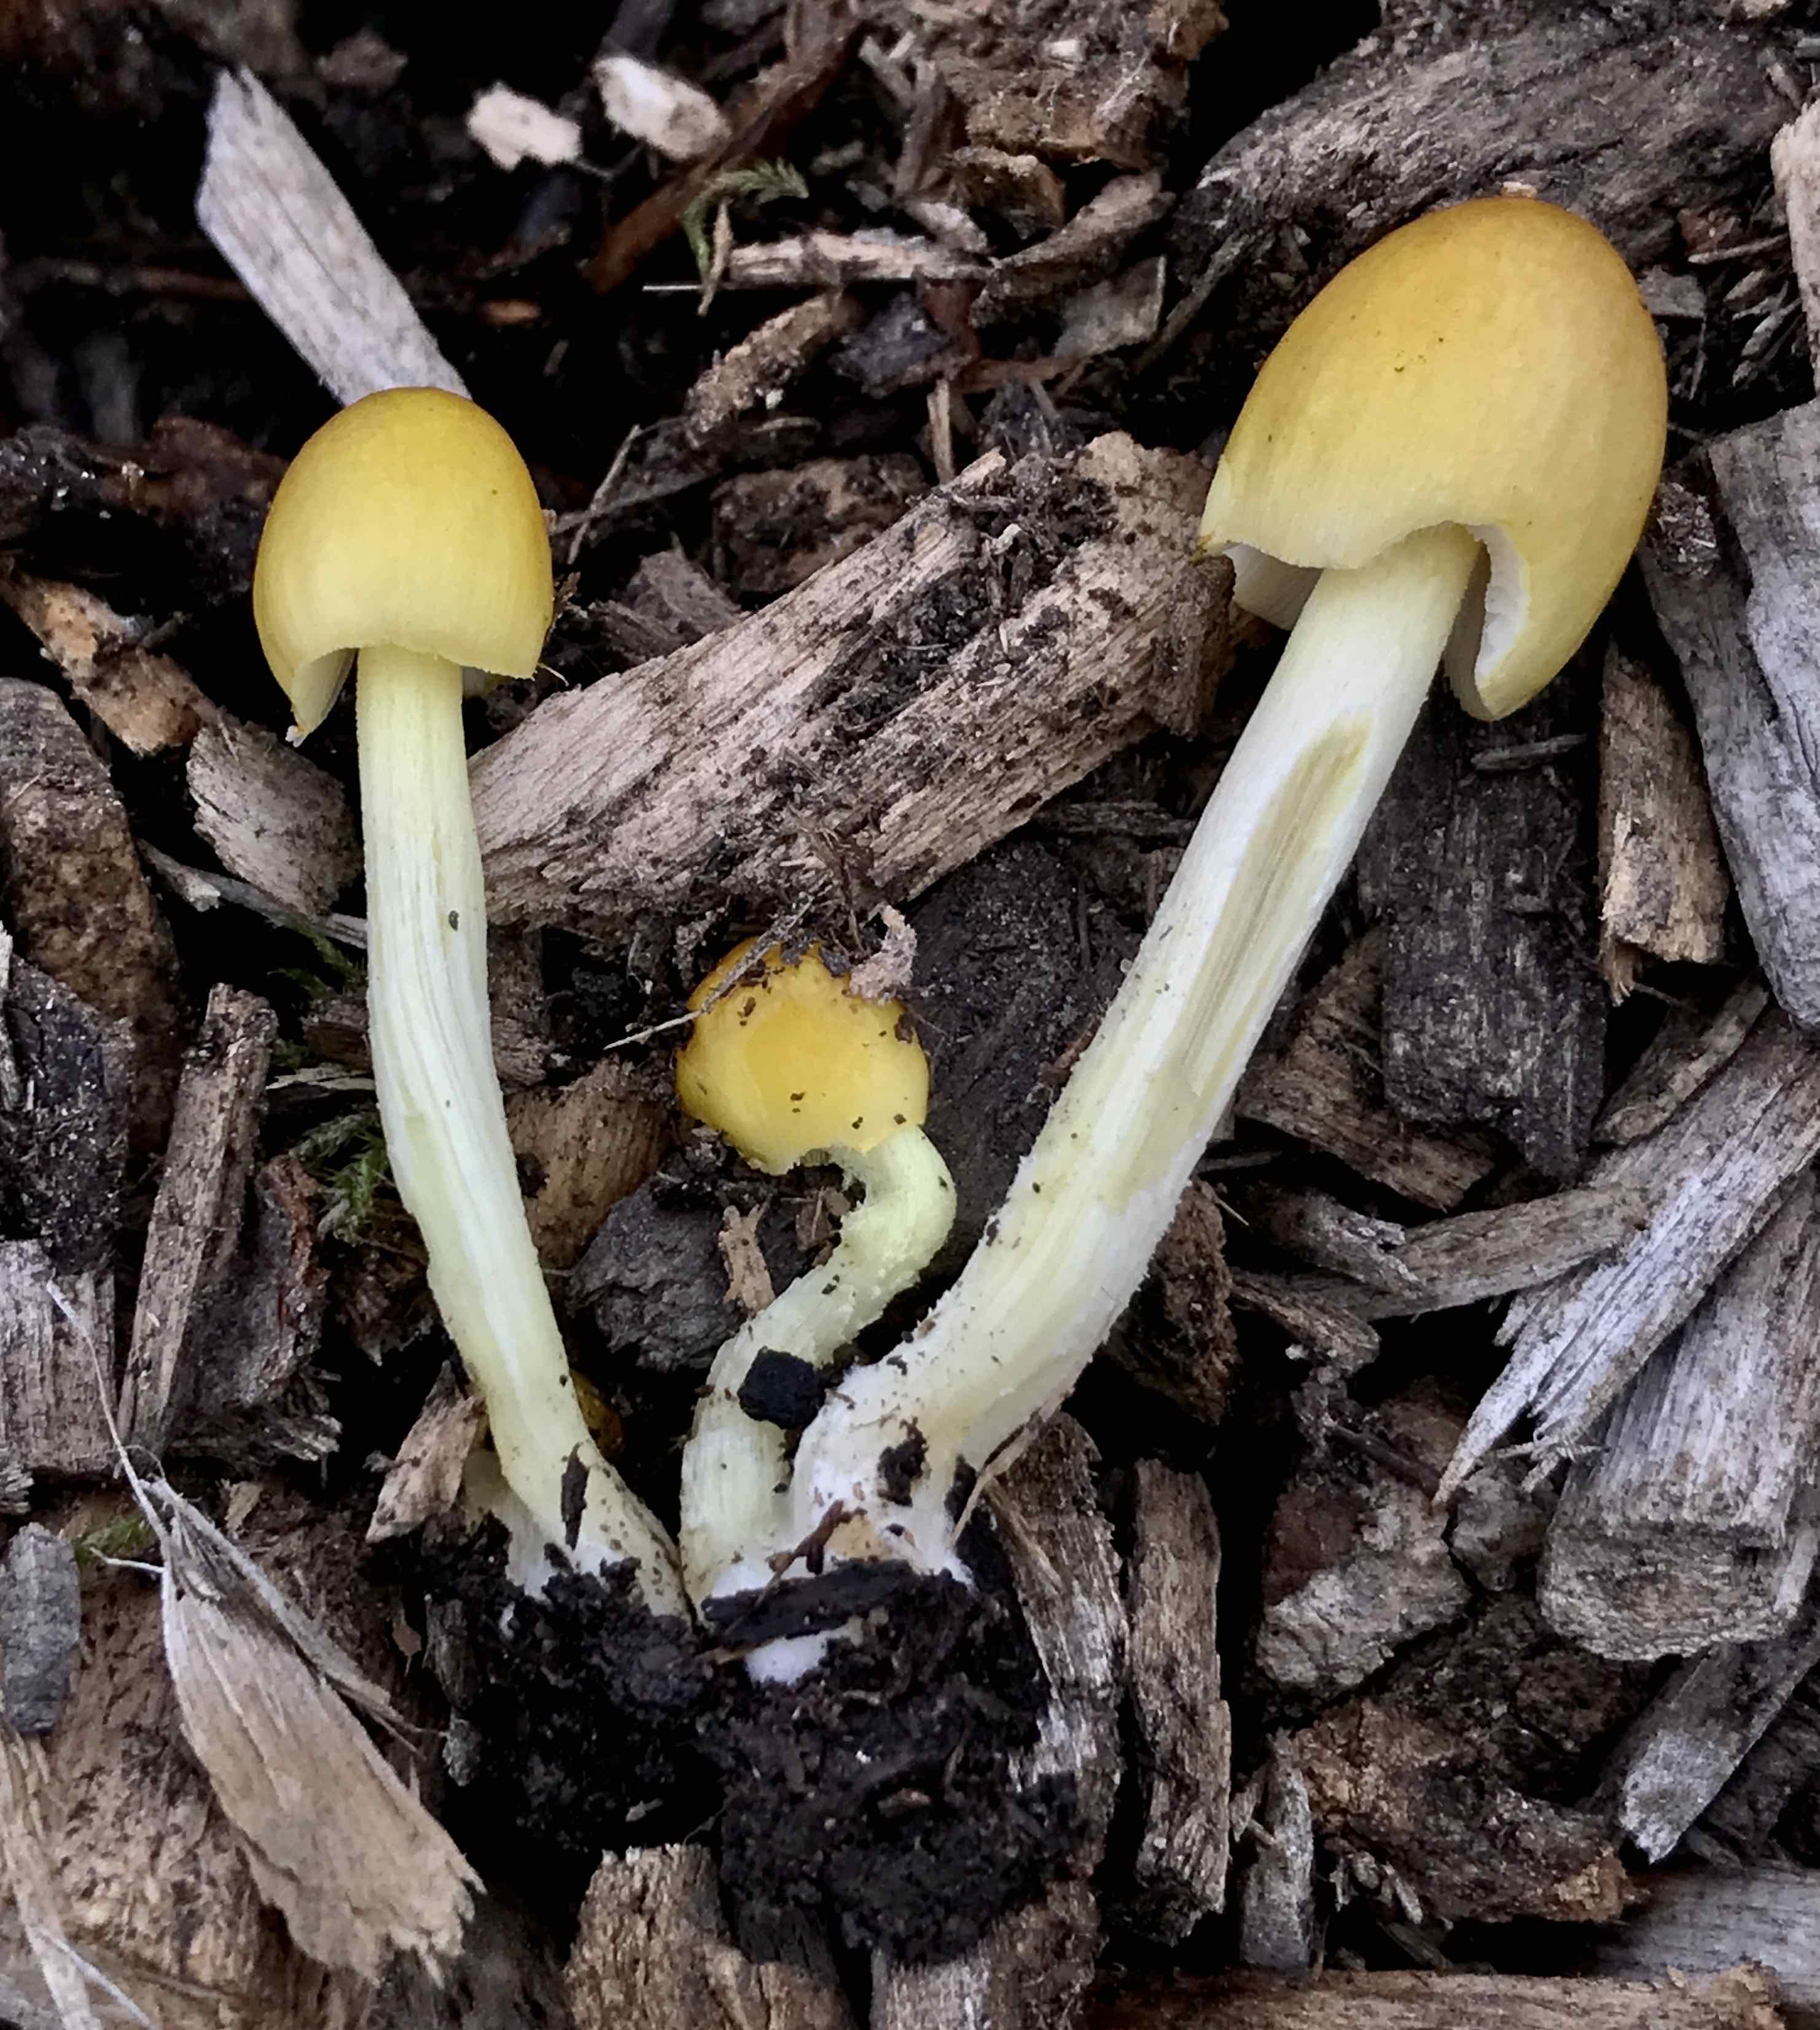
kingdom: Fungi
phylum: Basidiomycota
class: Agaricomycetes
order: Agaricales
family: Bolbitiaceae
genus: Bolbitius
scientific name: Bolbitius titubans
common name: almindelig gulhat
